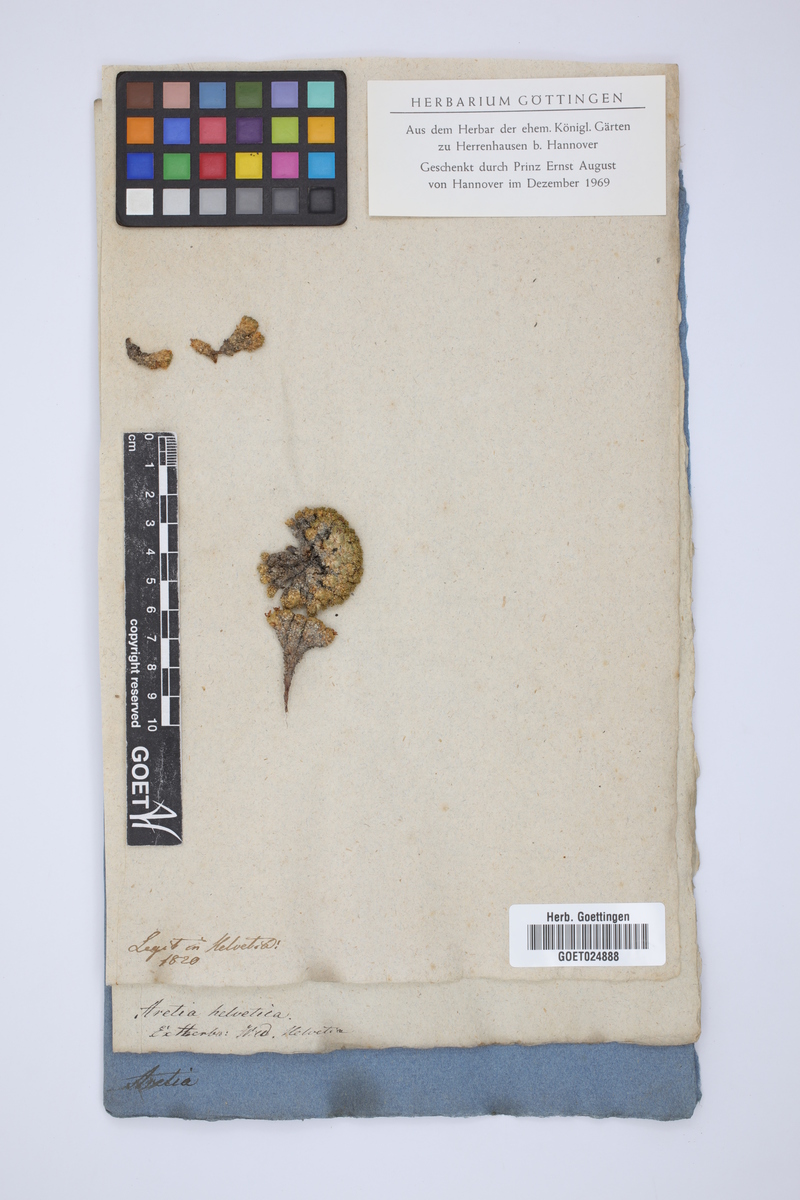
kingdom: Plantae
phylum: Tracheophyta
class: Magnoliopsida
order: Ericales
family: Primulaceae
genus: Androsace
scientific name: Androsace helvetica
